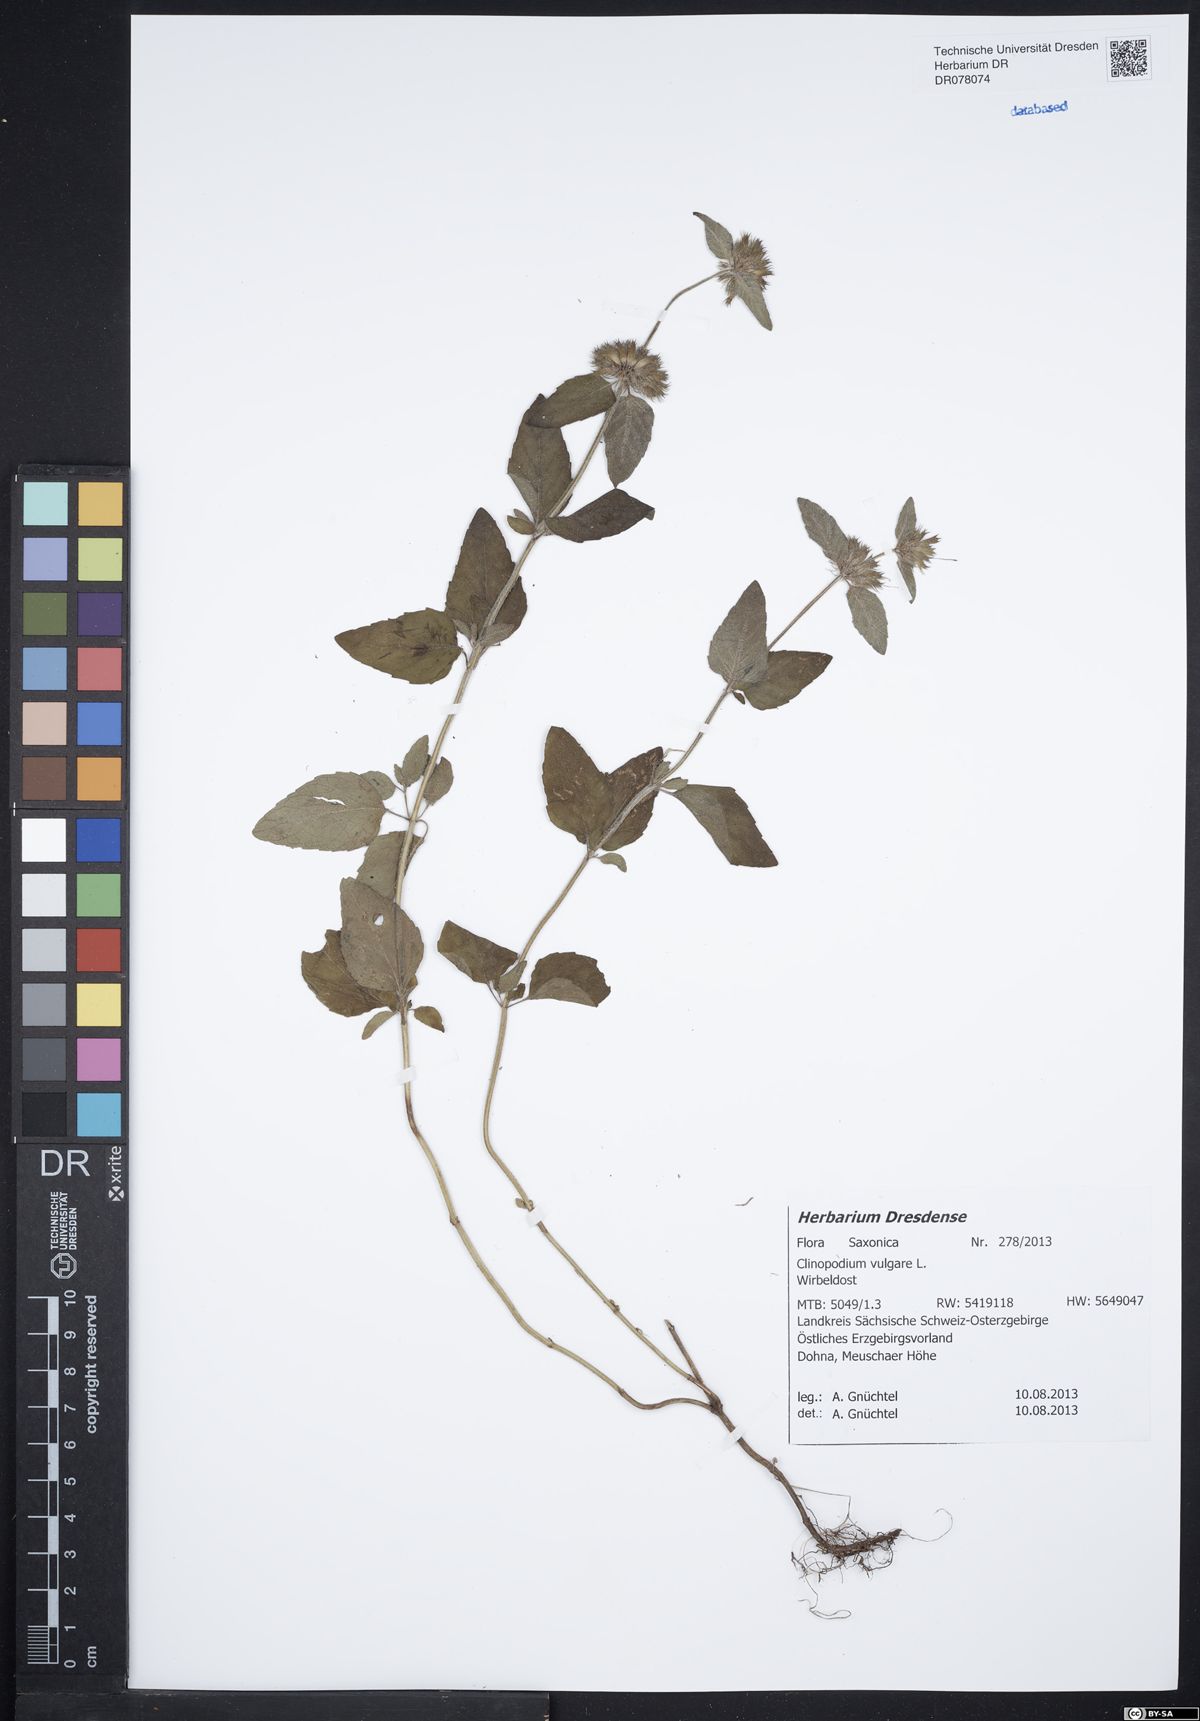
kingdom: Plantae
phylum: Tracheophyta
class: Magnoliopsida
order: Lamiales
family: Lamiaceae
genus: Clinopodium
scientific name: Clinopodium vulgare
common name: Wild basil
